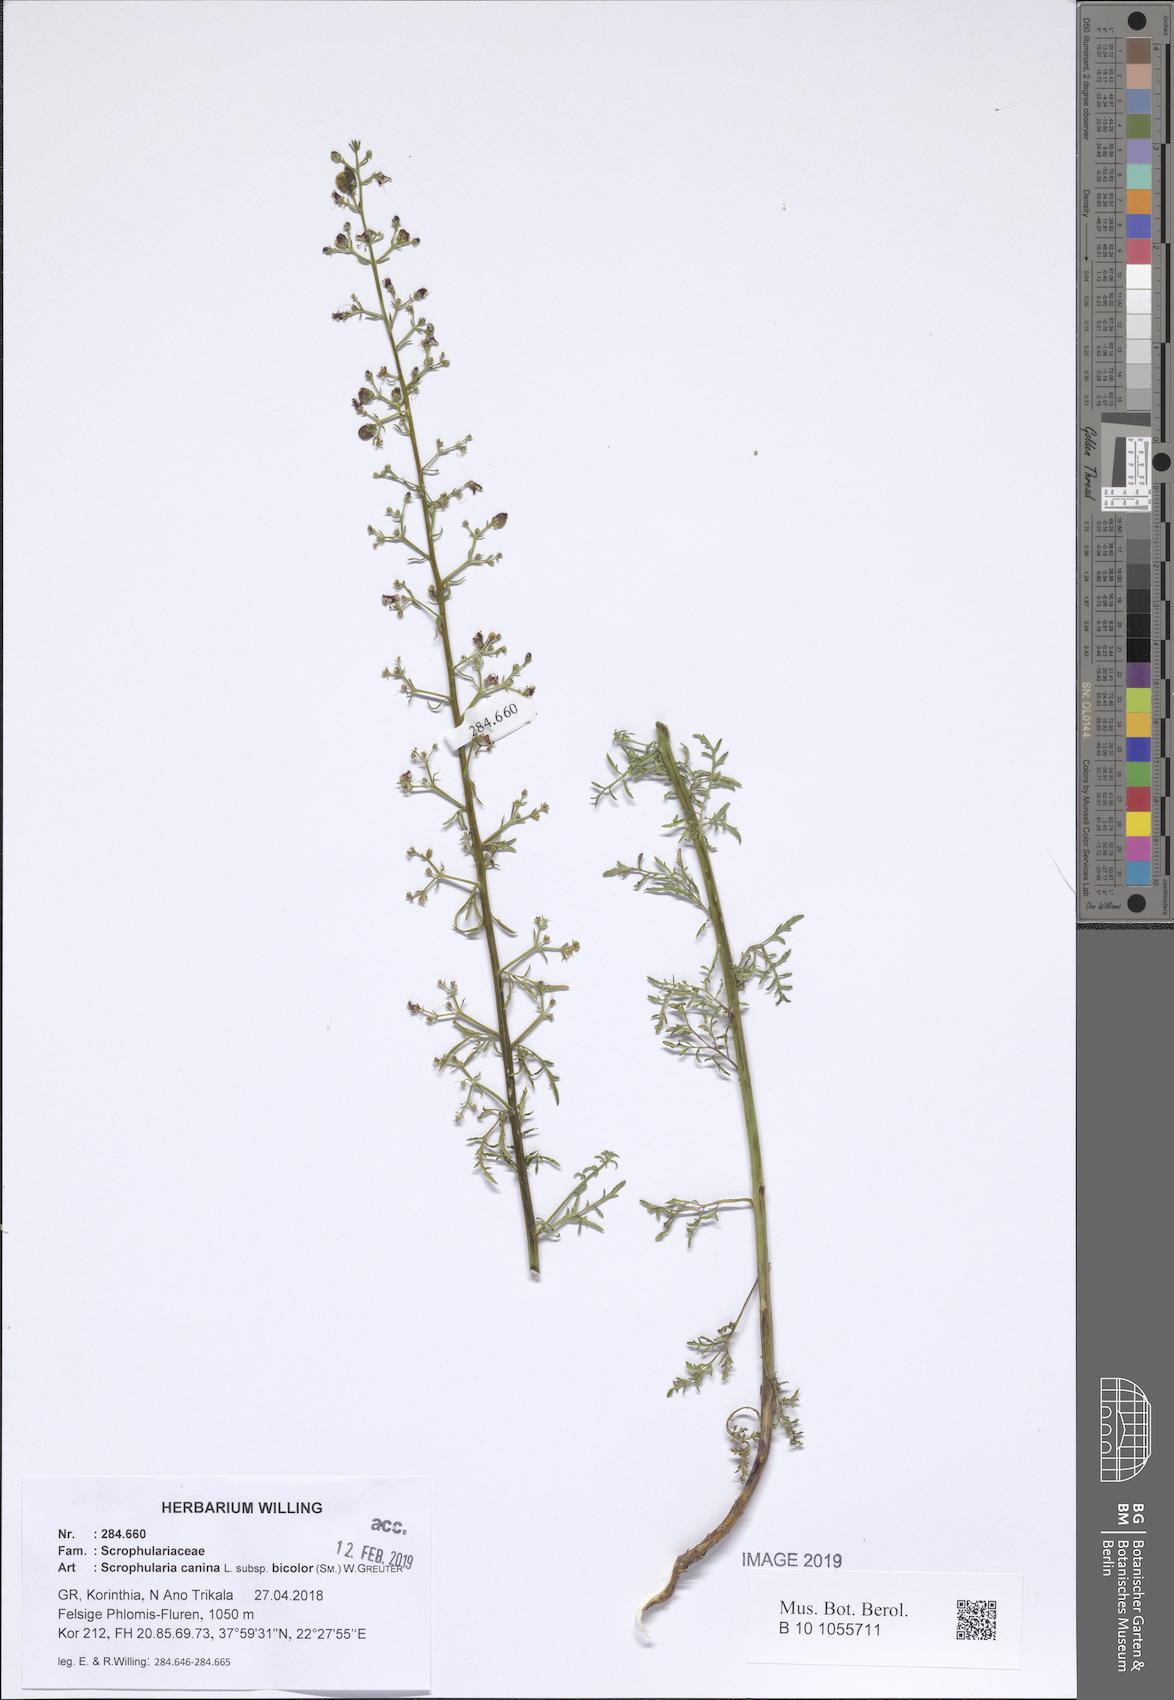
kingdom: Plantae
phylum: Tracheophyta
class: Magnoliopsida
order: Lamiales
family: Scrophulariaceae
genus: Scrophularia
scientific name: Scrophularia canina
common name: French figwort
